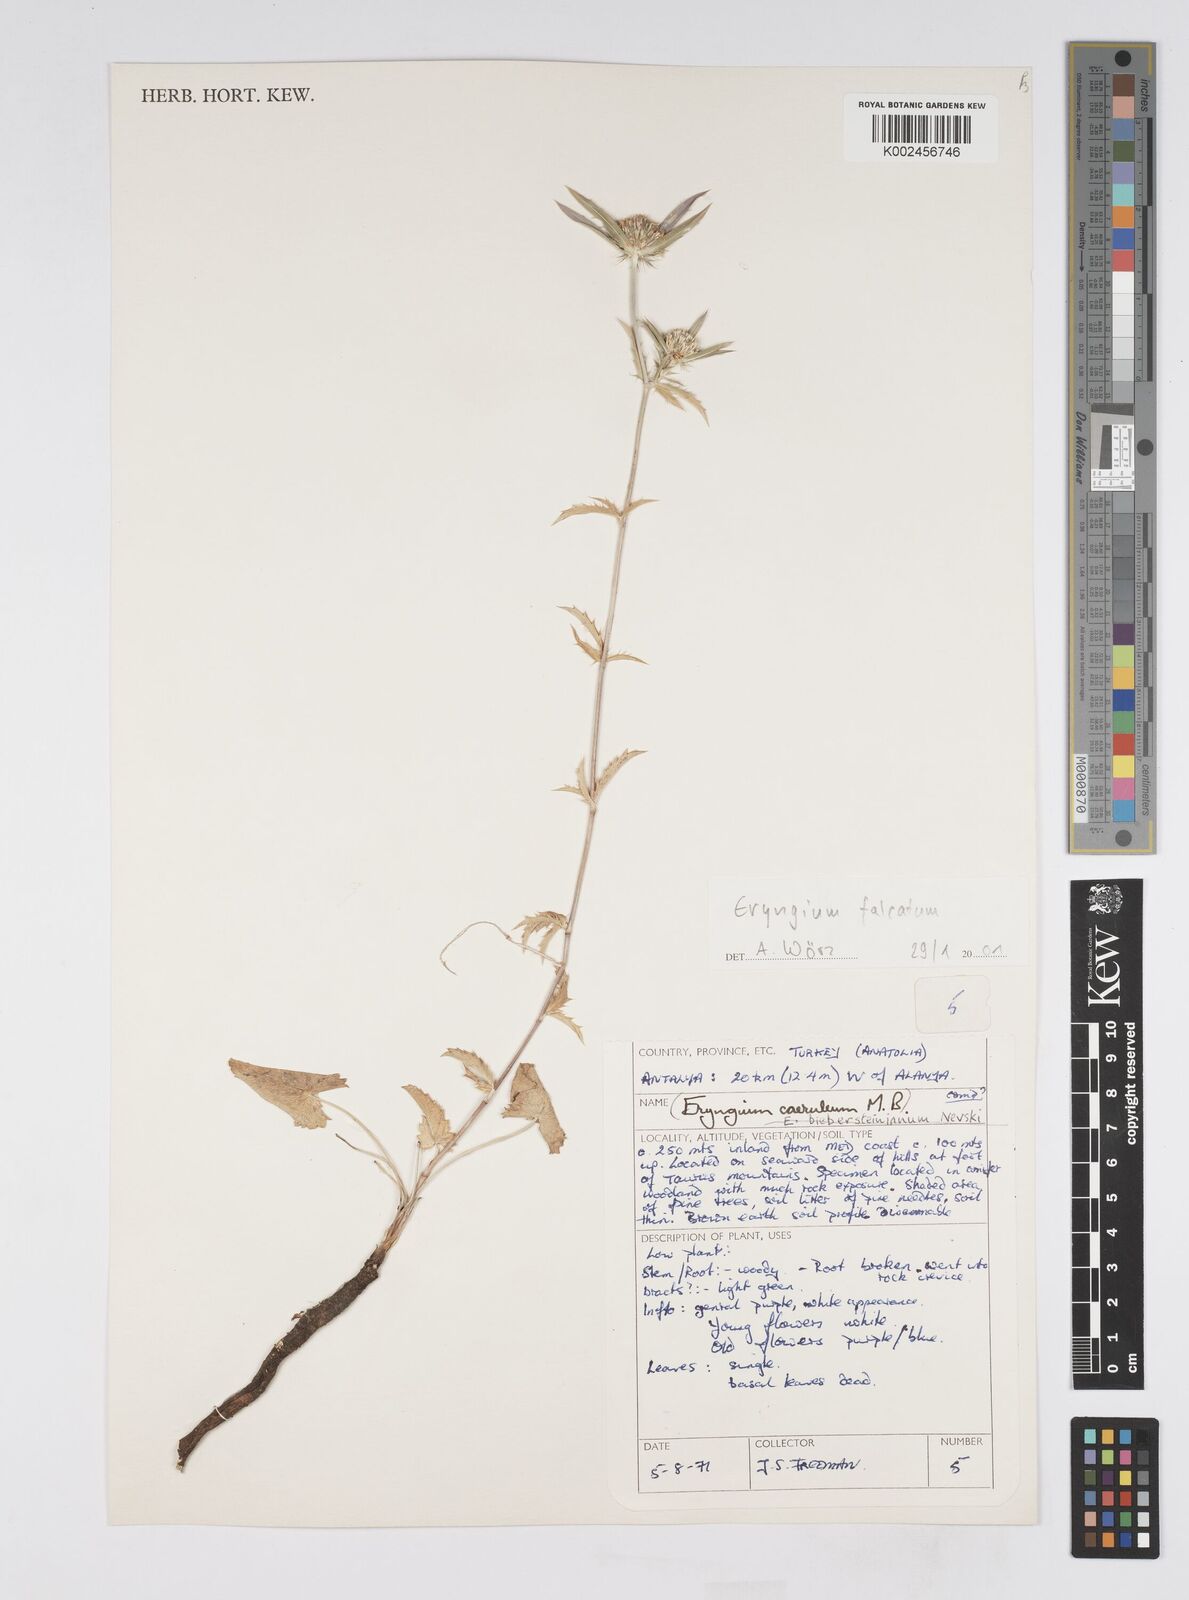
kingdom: Plantae
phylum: Tracheophyta
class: Magnoliopsida
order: Apiales
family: Apiaceae
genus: Eryngium
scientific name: Eryngium falcatum
